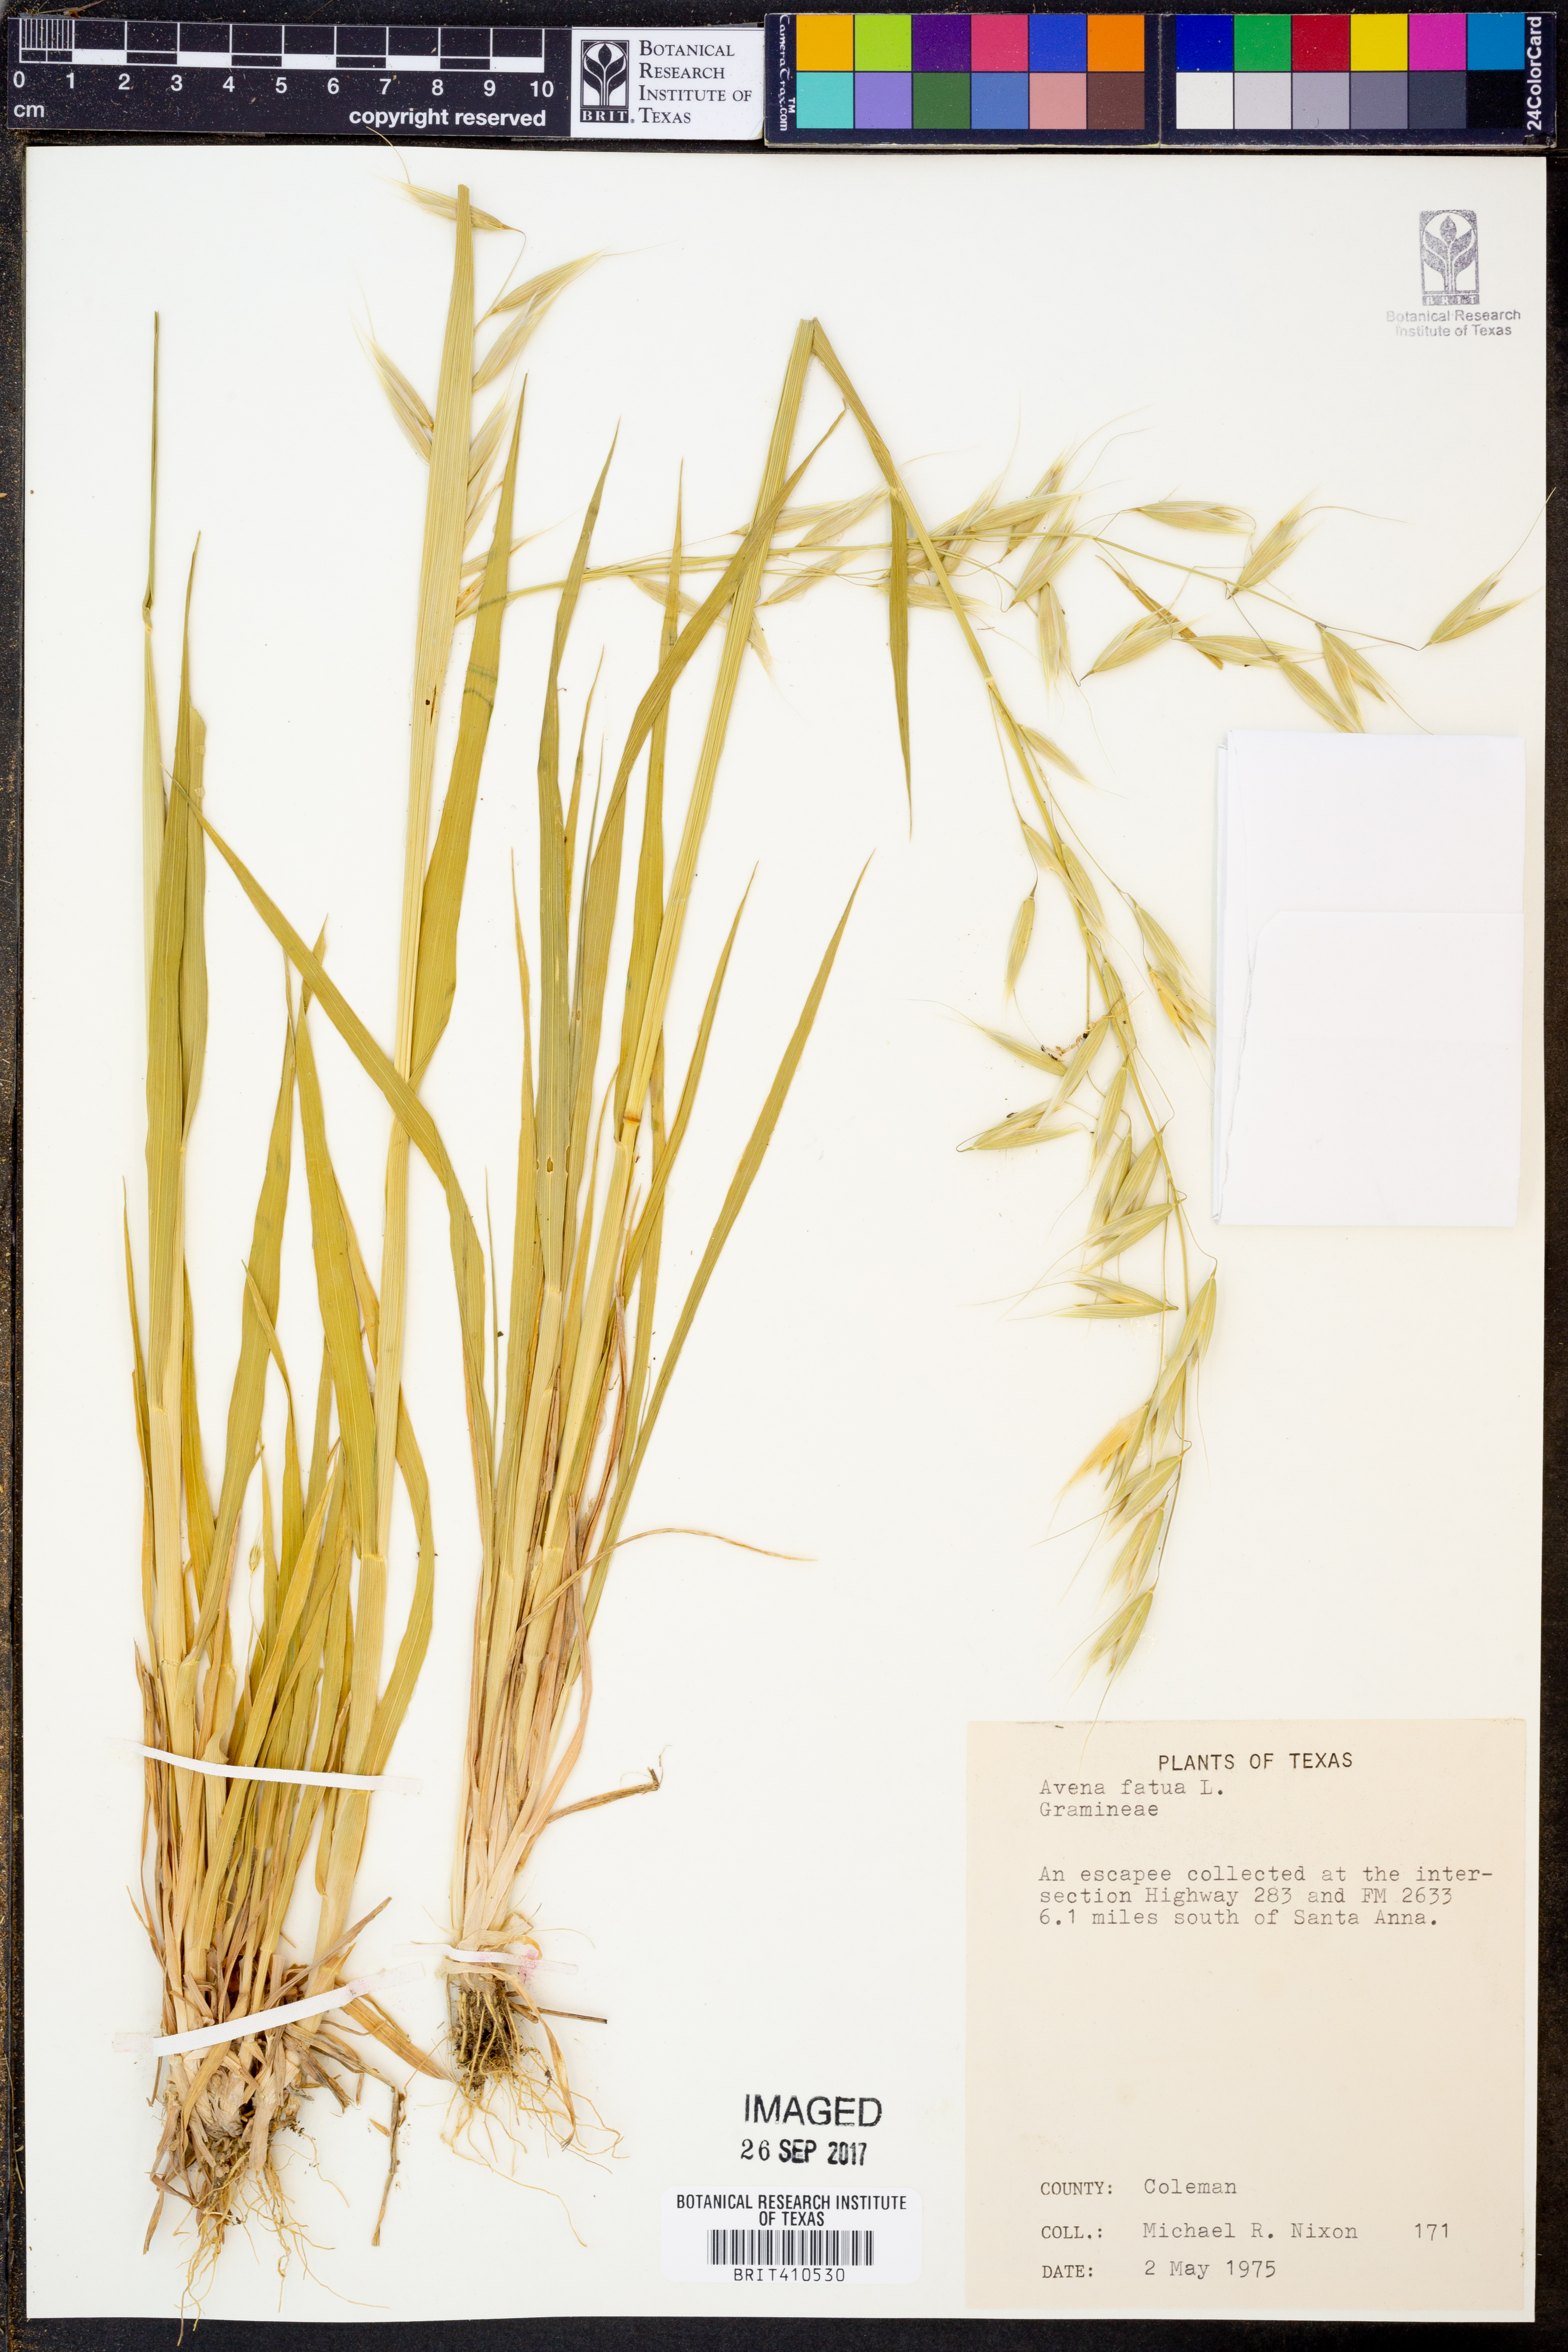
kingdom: Plantae
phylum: Tracheophyta
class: Liliopsida
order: Poales
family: Poaceae
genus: Avena
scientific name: Avena fatua
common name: Wild oat
